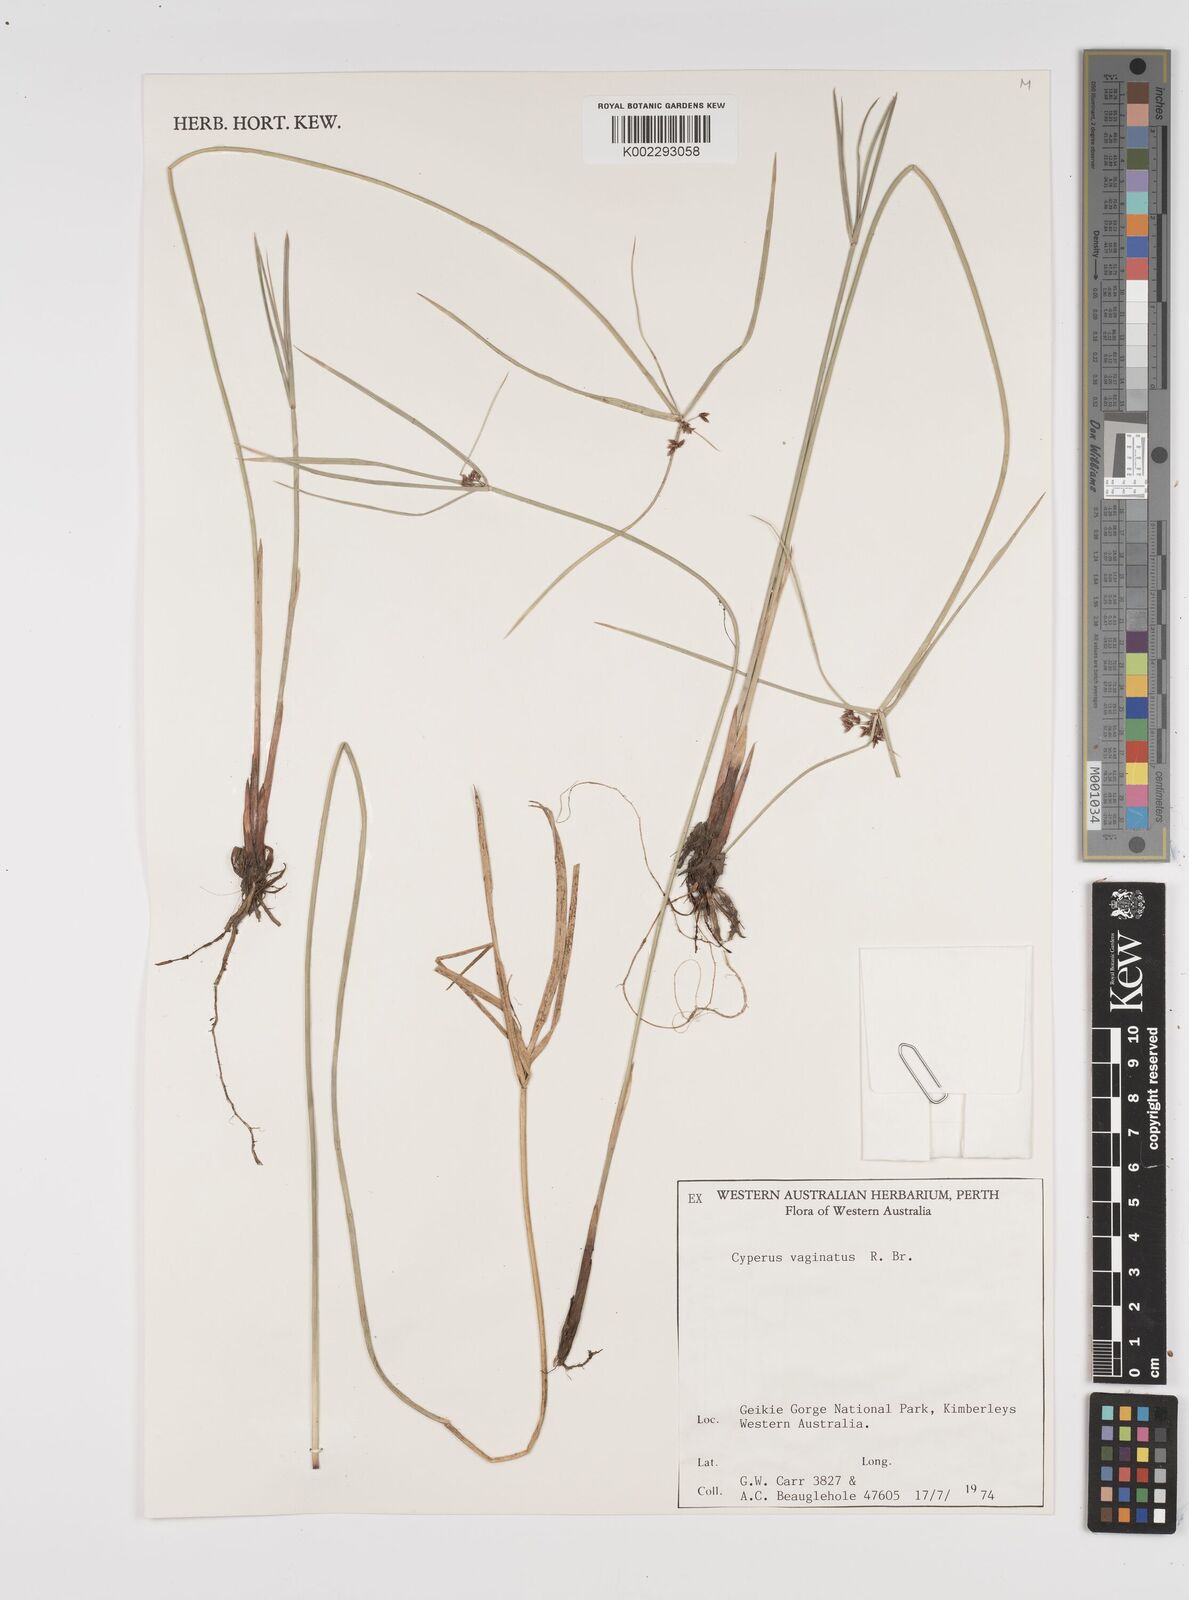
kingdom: Plantae
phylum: Tracheophyta
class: Liliopsida
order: Poales
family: Cyperaceae
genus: Cyperus
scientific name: Cyperus vaginatus
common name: Stiff-leaved flat-sedge
